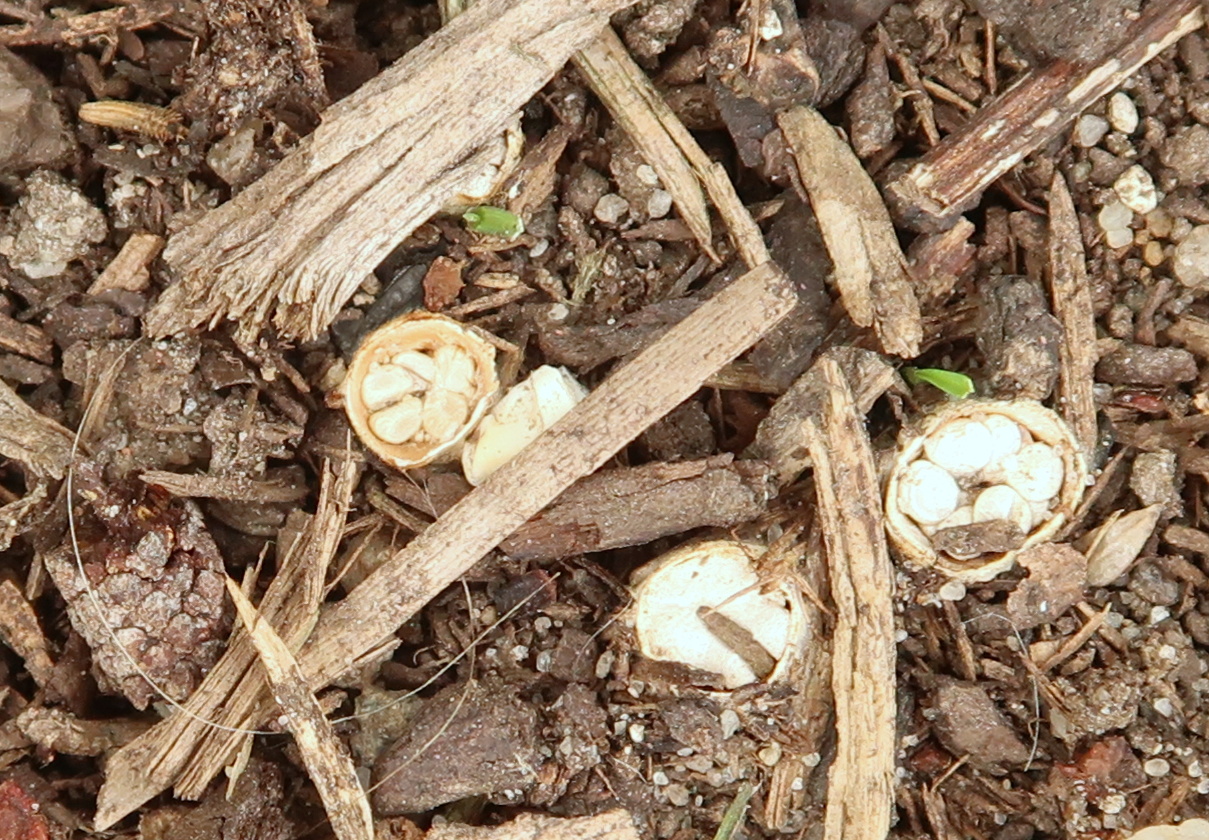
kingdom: Fungi
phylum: Basidiomycota
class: Agaricomycetes
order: Agaricales
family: Nidulariaceae
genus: Crucibulum
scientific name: Crucibulum crucibuliforme
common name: krukkesvamp
